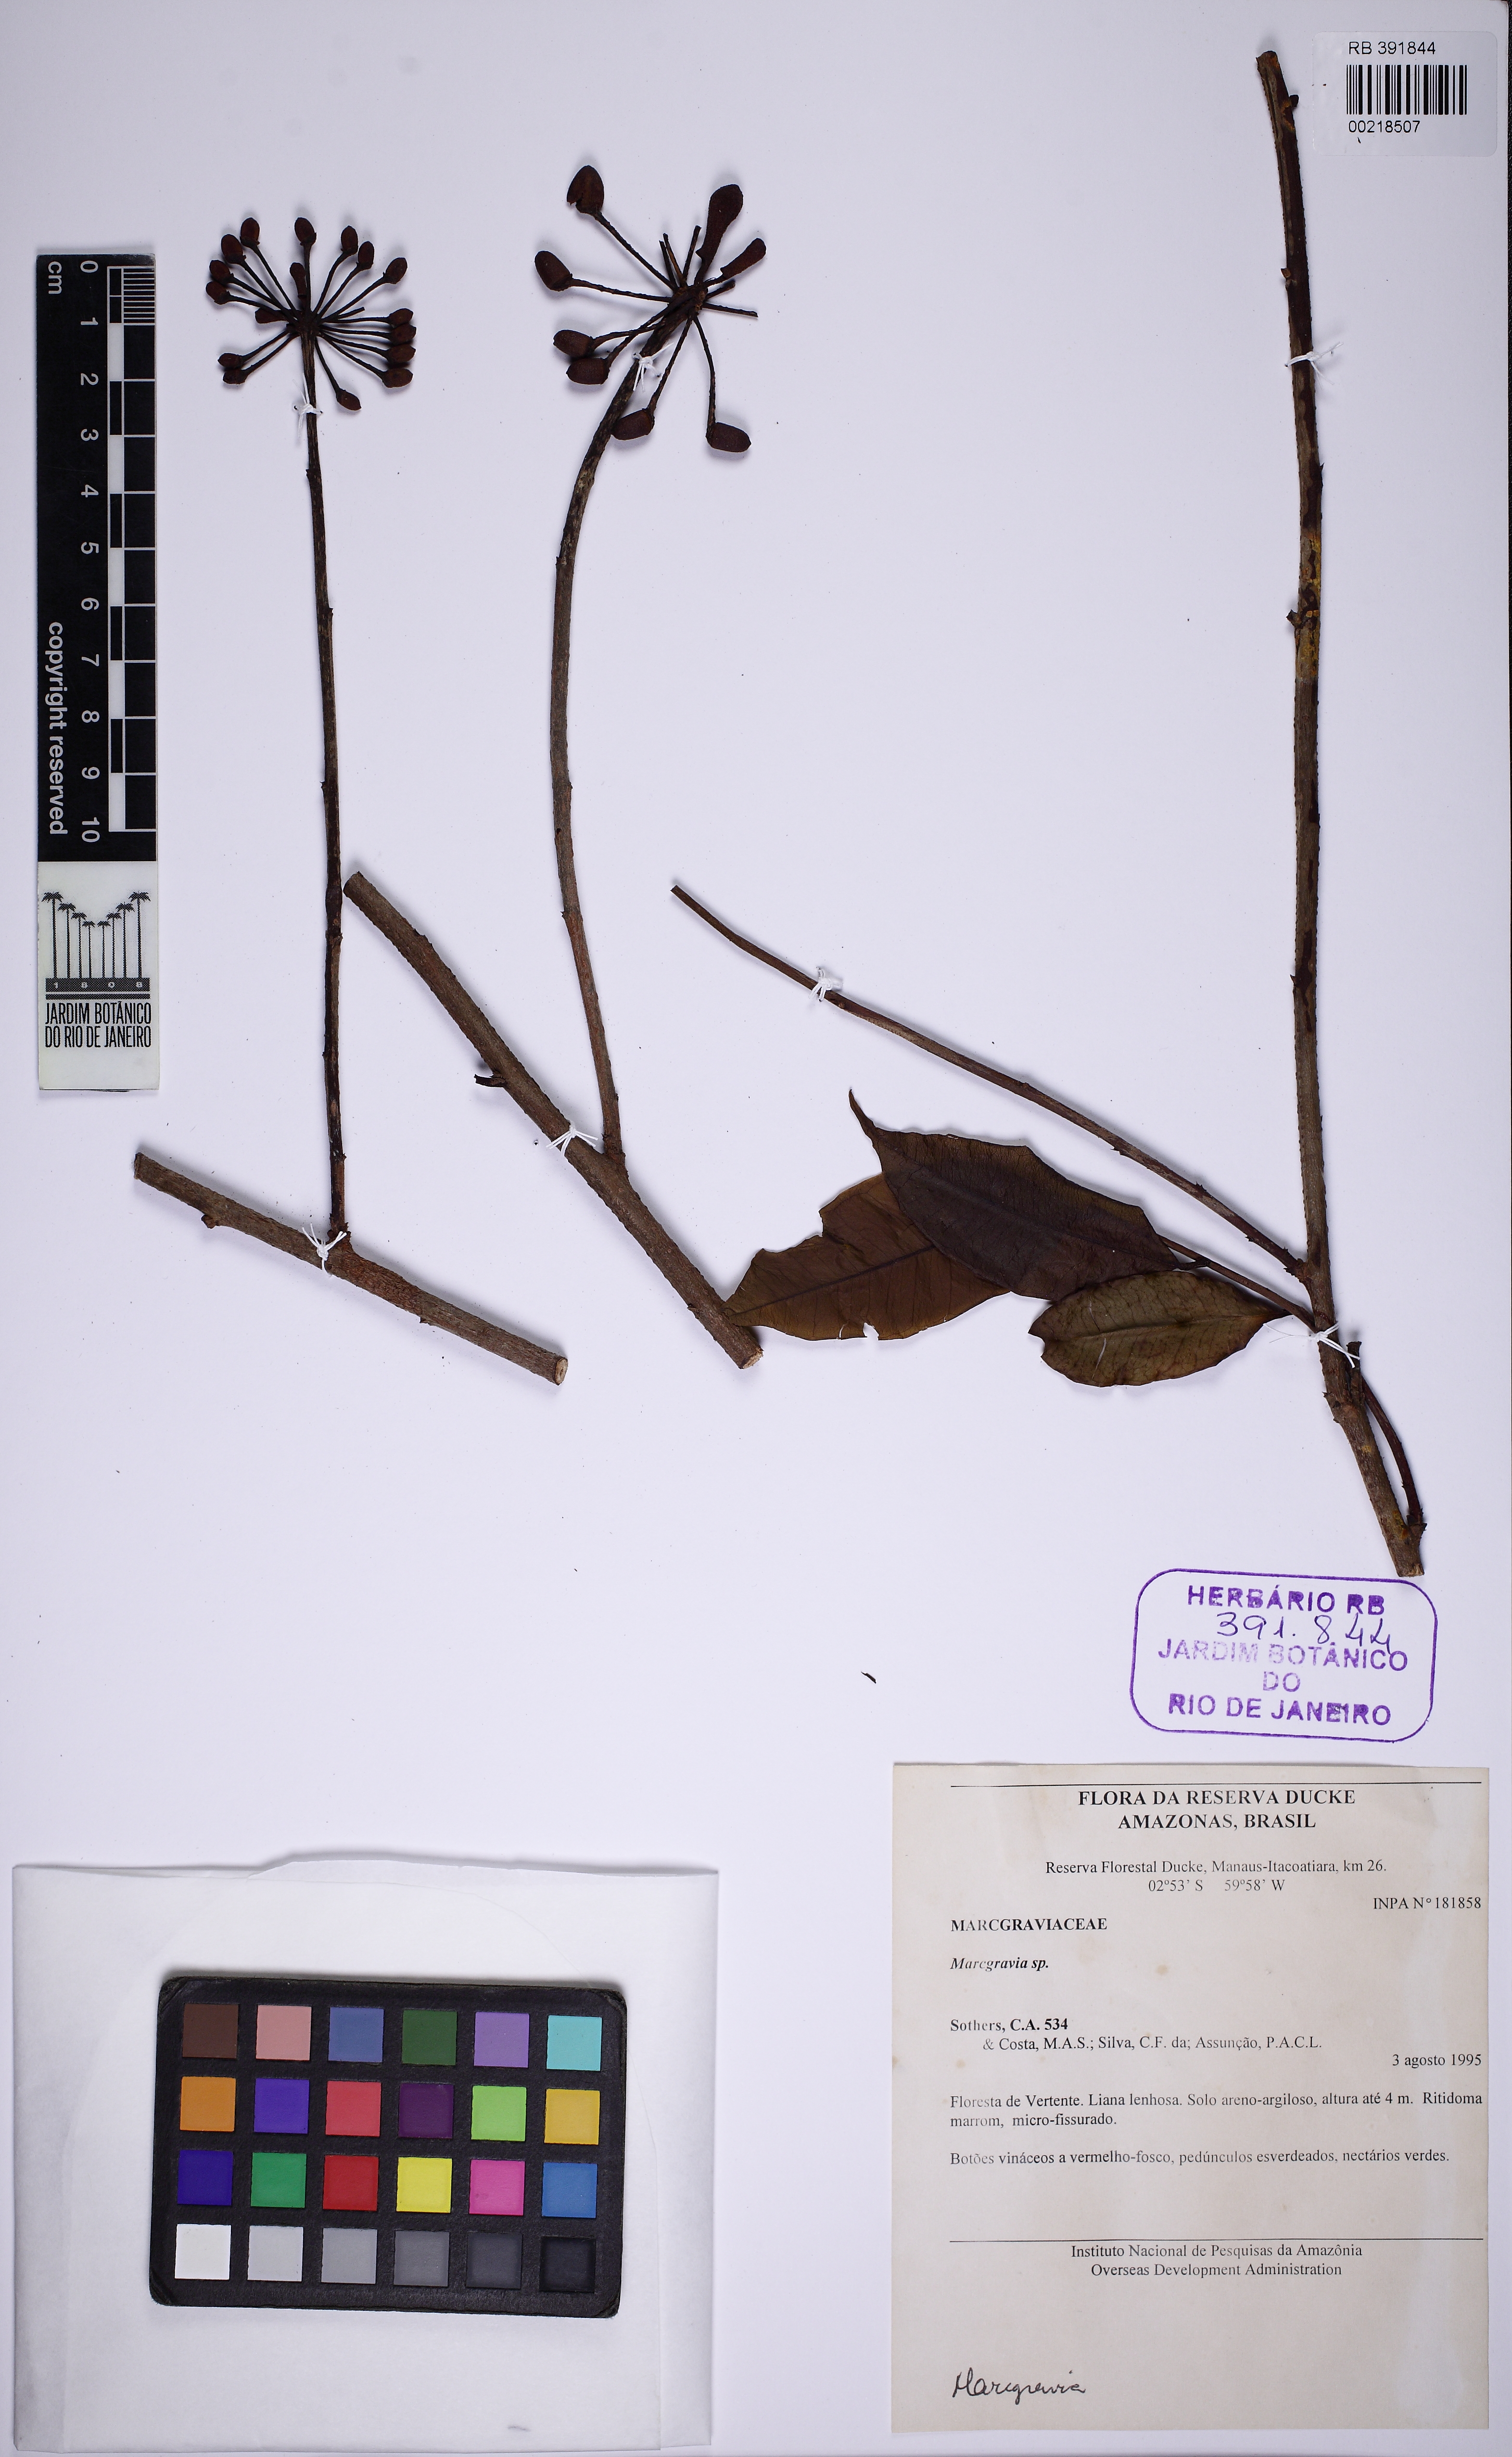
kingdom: Plantae
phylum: Tracheophyta
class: Magnoliopsida
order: Ericales
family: Marcgraviaceae
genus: Marcgravia
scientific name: Marcgravia
